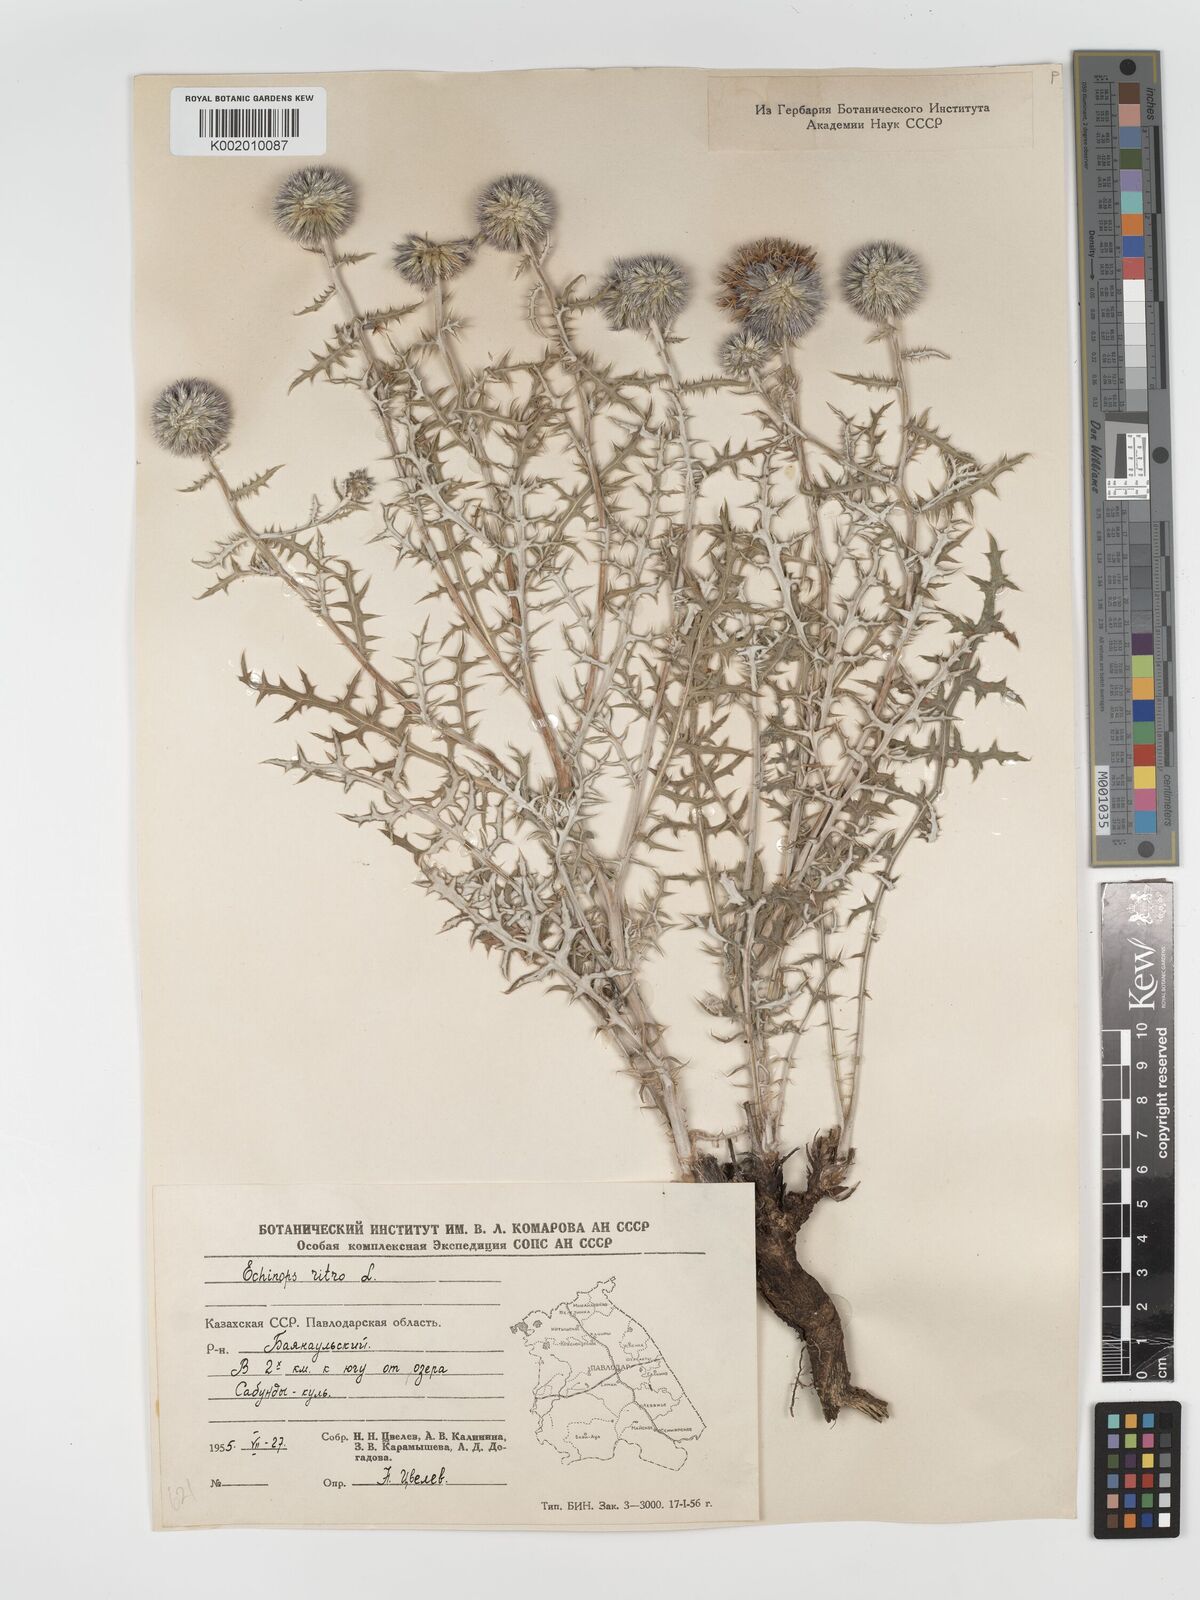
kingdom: Plantae
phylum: Tracheophyta
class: Magnoliopsida
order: Asterales
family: Asteraceae
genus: Echinops
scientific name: Echinops bannaticus
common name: Blue globe-thistle
